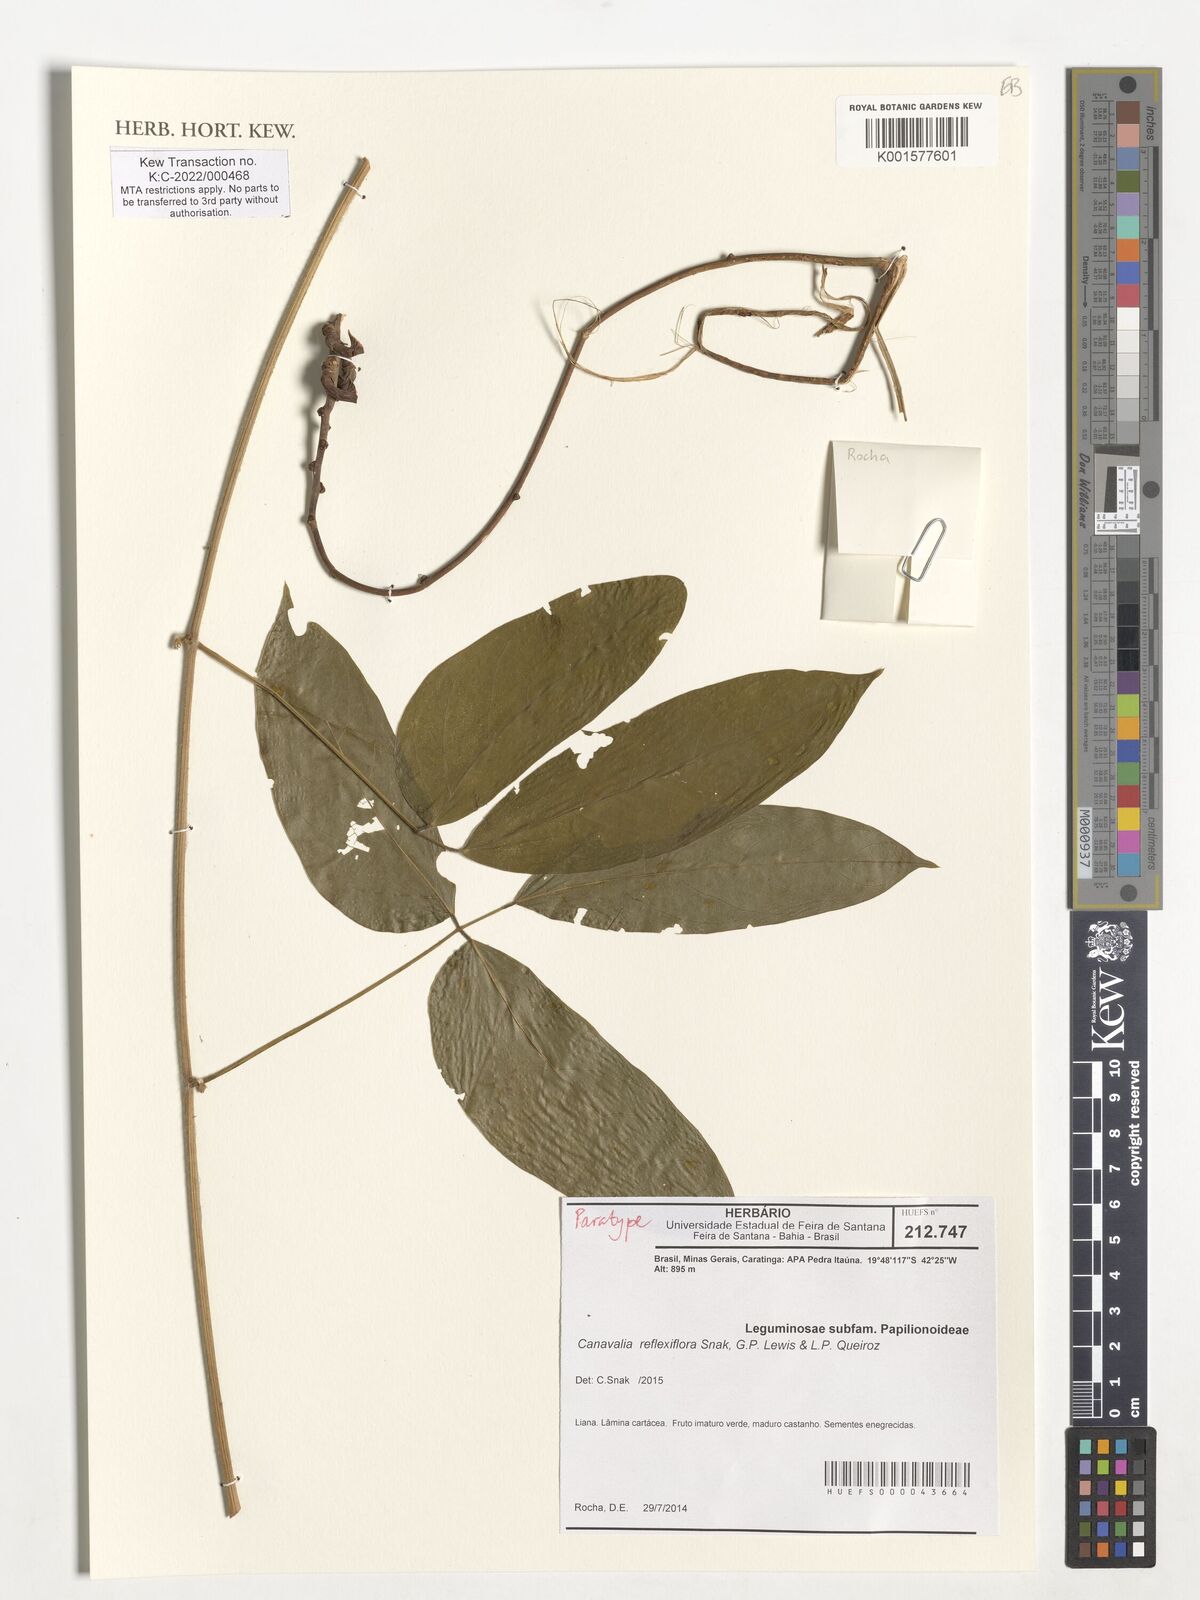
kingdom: Plantae
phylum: Tracheophyta
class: Magnoliopsida
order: Fabales
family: Fabaceae
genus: Canavalia
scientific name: Canavalia reflexiflora
